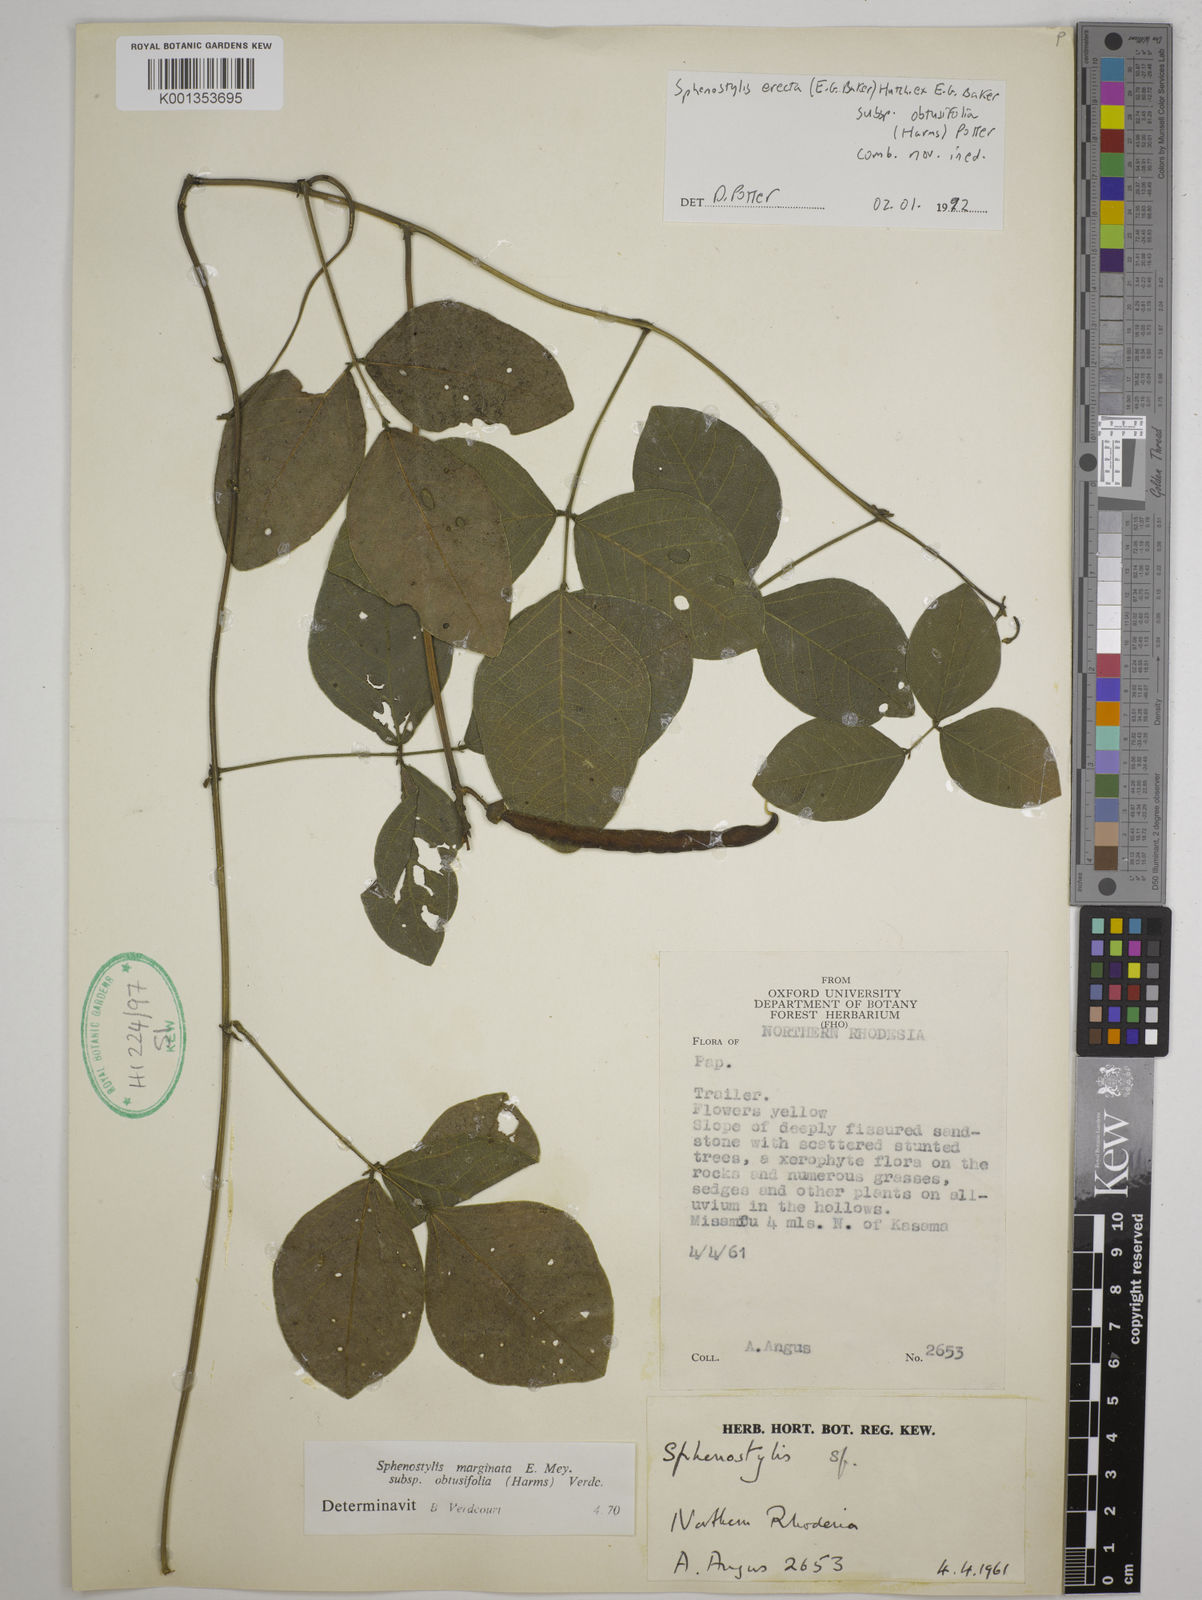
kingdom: Plantae
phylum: Tracheophyta
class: Magnoliopsida
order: Fabales
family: Fabaceae
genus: Sphenostylis
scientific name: Sphenostylis erecta
